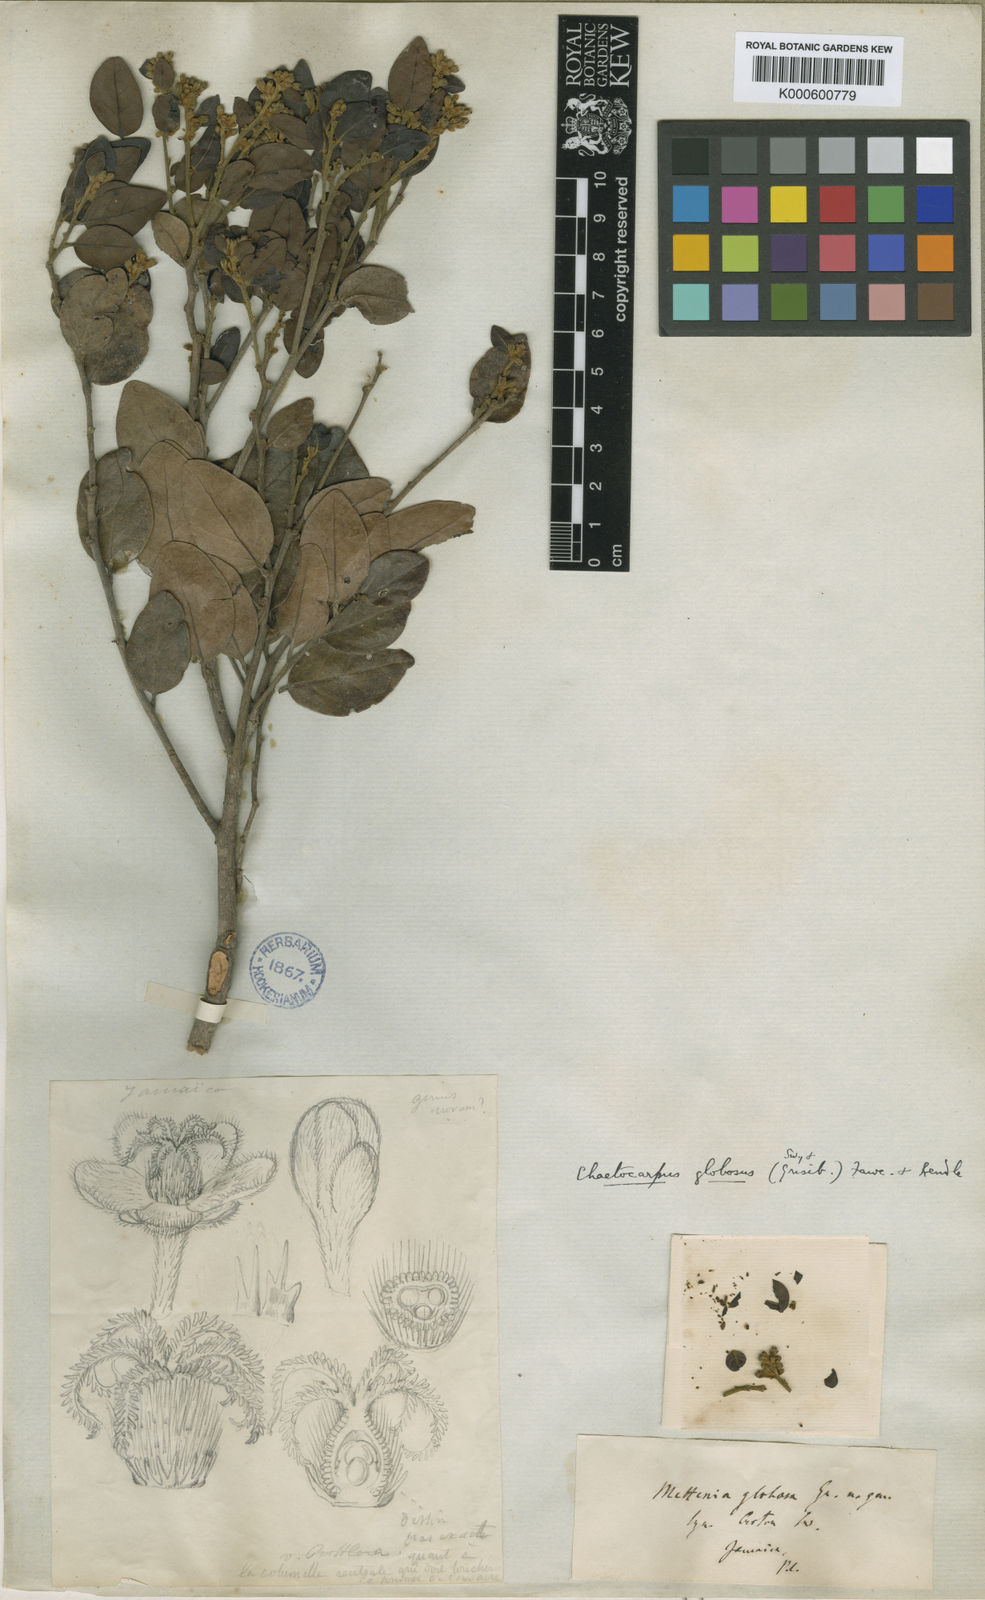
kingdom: Plantae
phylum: Tracheophyta
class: Magnoliopsida
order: Malpighiales
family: Peraceae
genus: Chaetocarpus
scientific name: Chaetocarpus globosus
